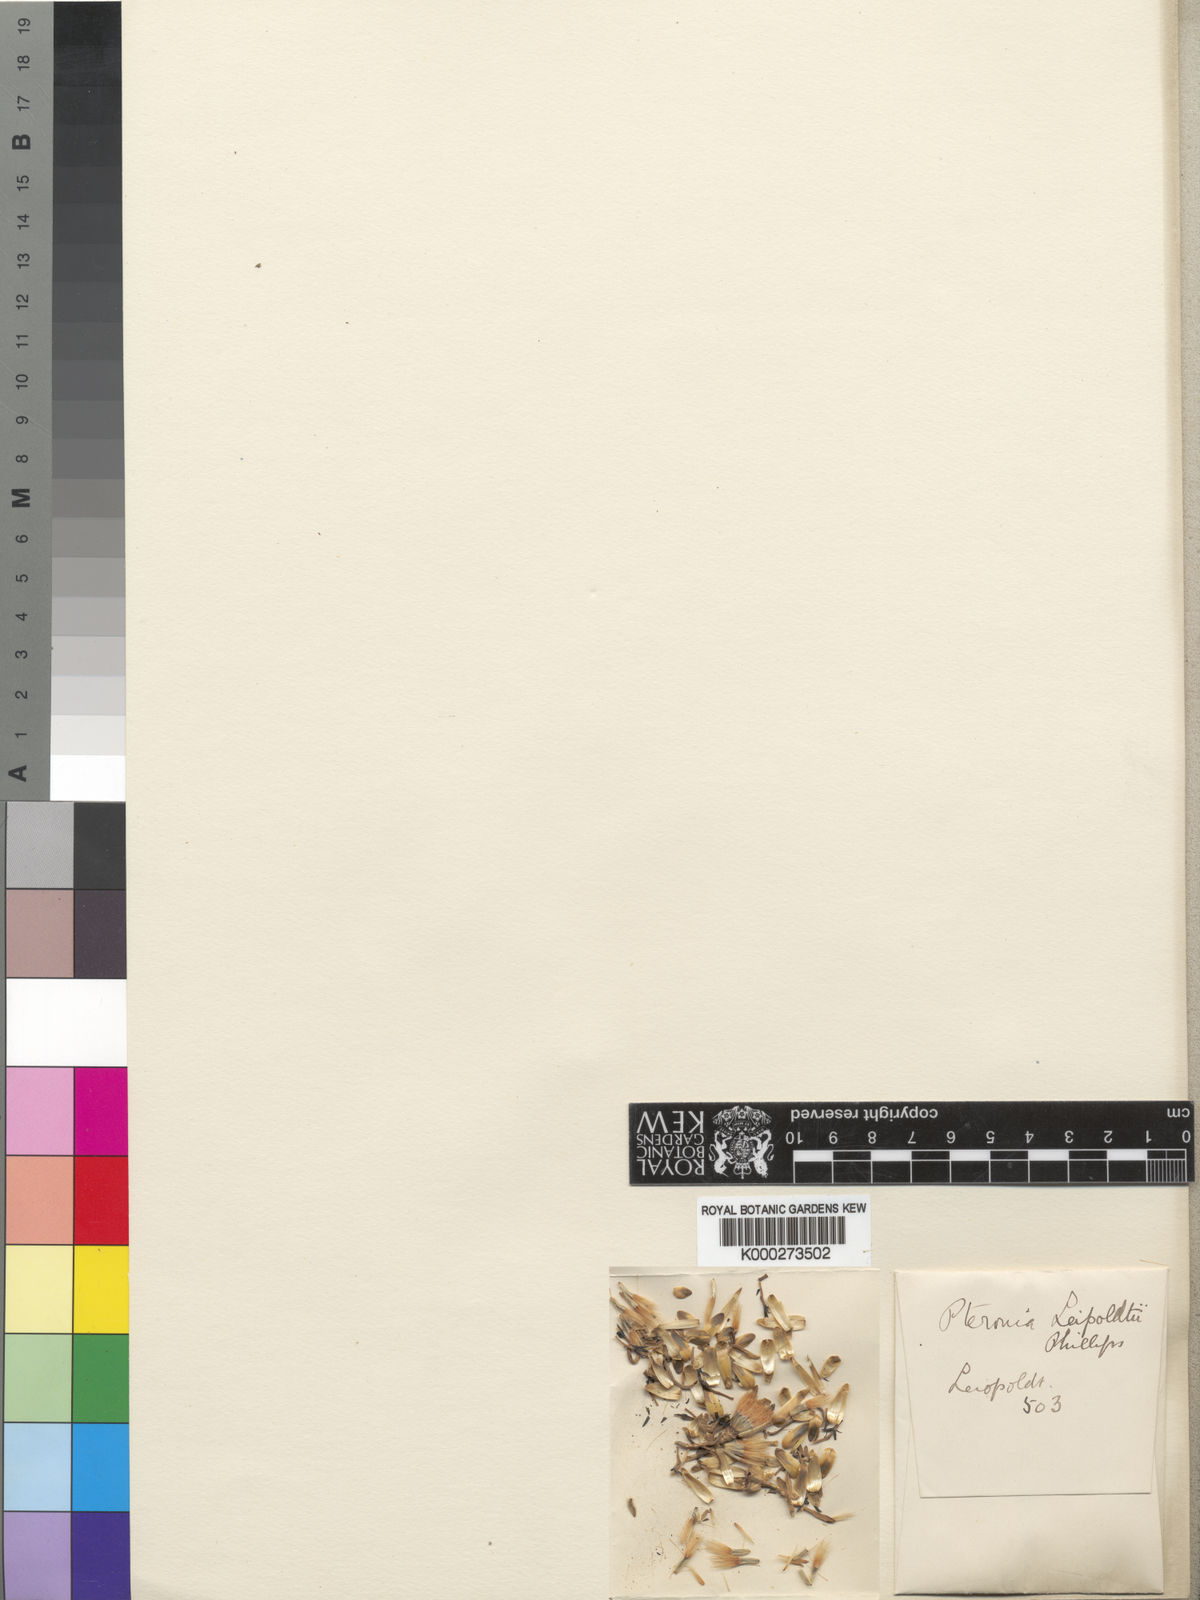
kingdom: Plantae
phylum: Tracheophyta
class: Magnoliopsida
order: Asterales
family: Asteraceae
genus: Pteronia
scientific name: Pteronia ciliata
